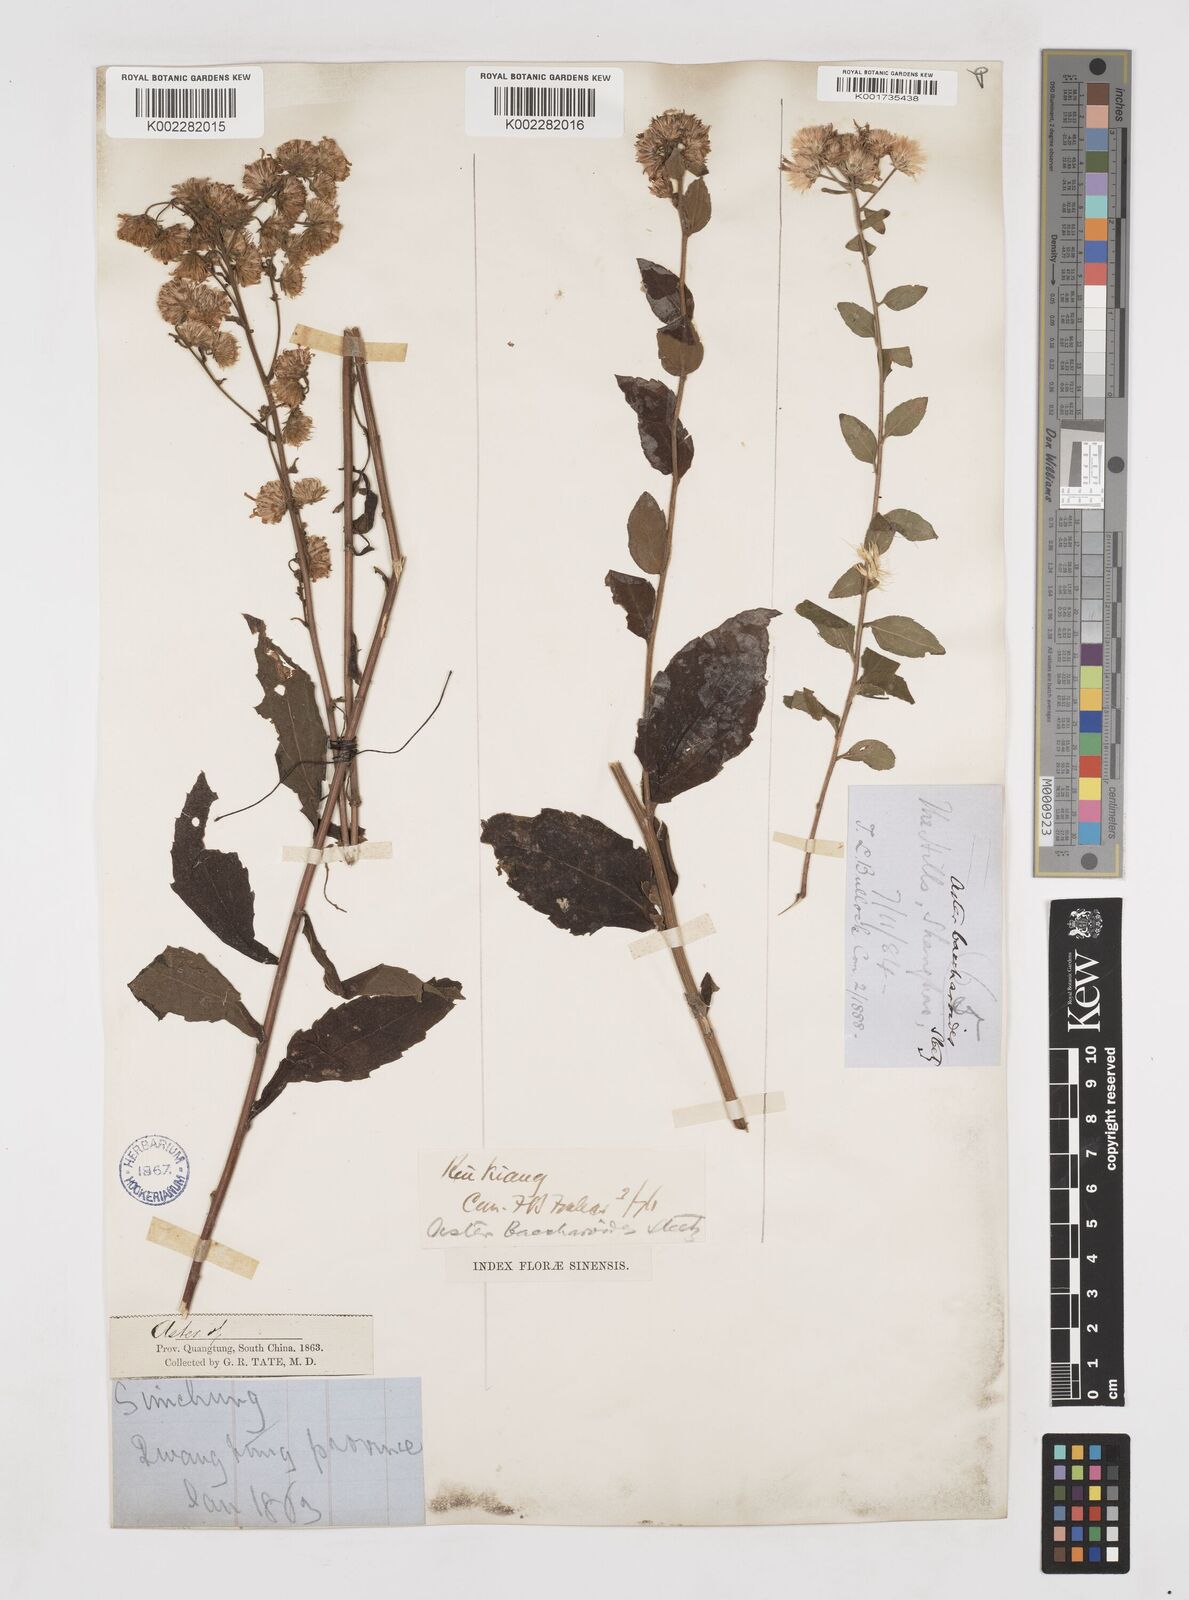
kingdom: Plantae
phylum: Tracheophyta
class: Magnoliopsida
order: Asterales
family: Asteraceae
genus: Aster
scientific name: Aster baccharoides
